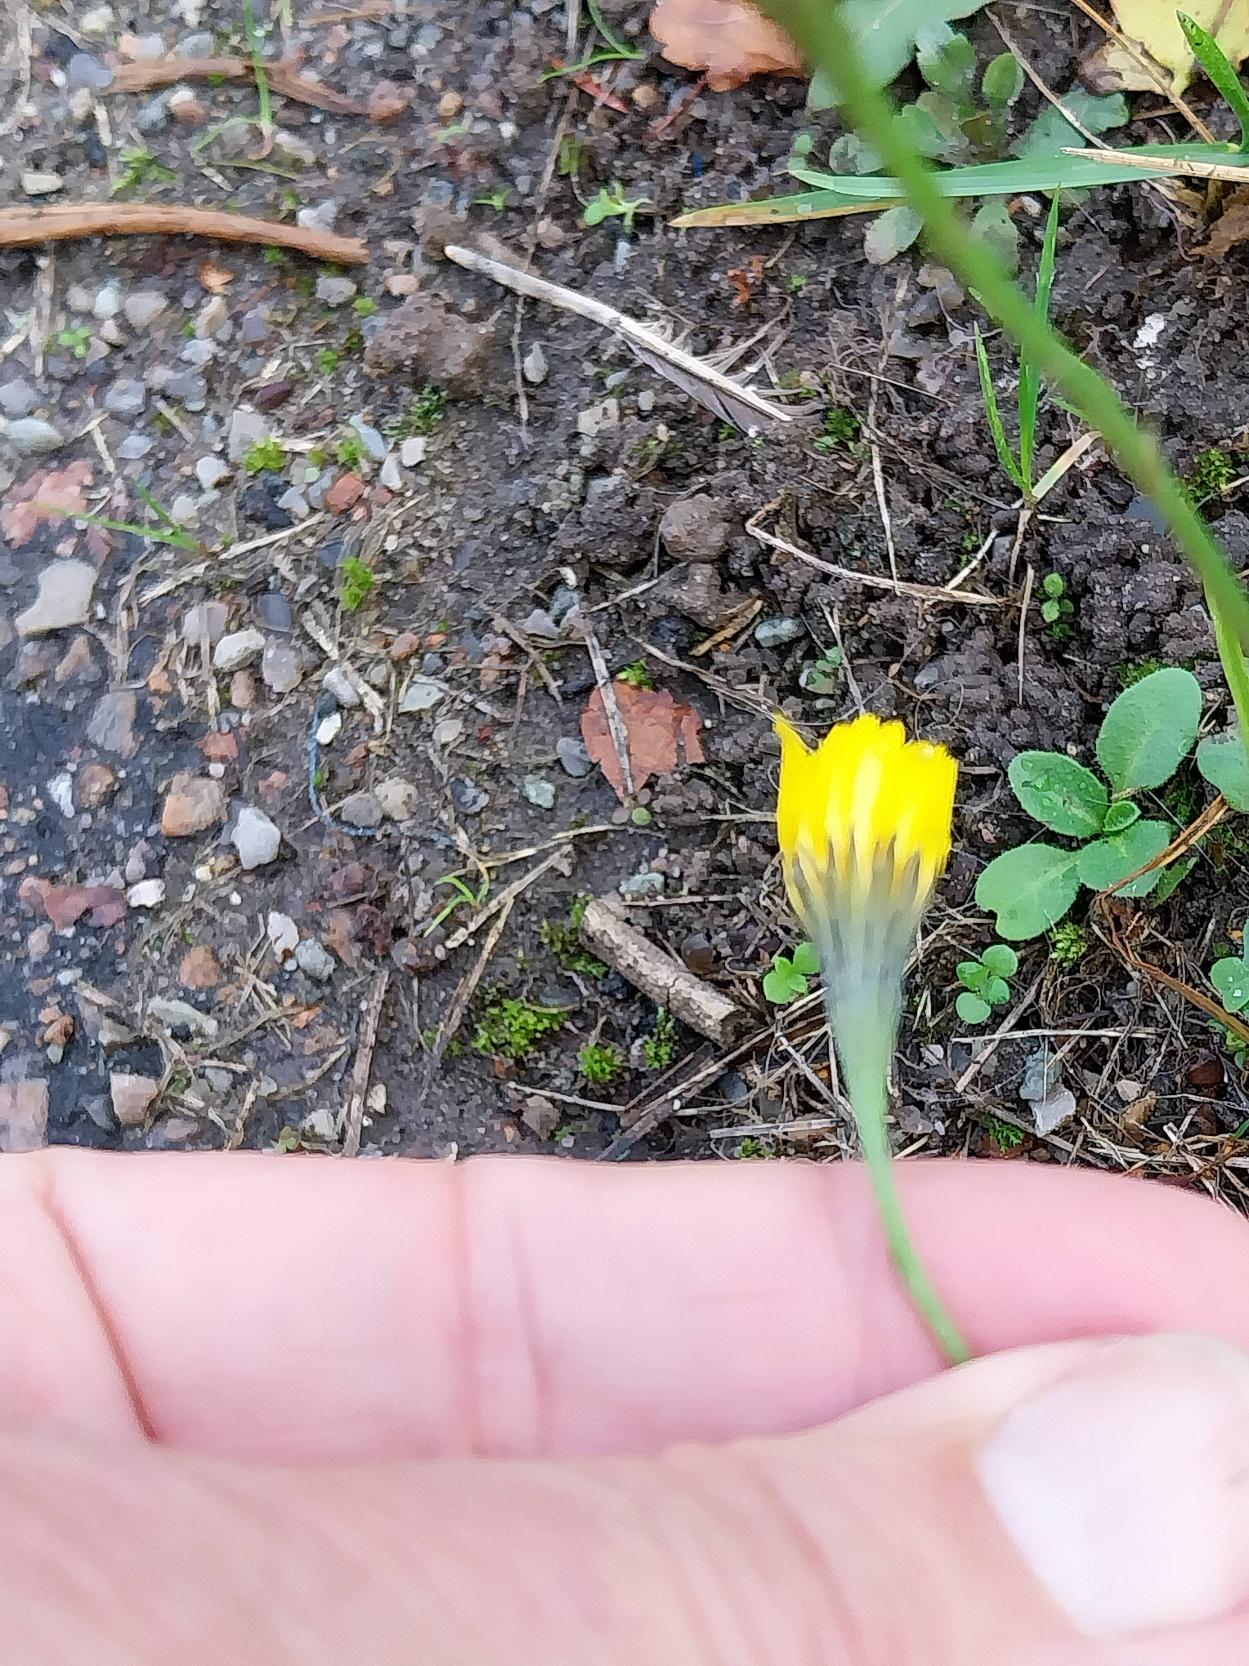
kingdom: Plantae
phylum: Tracheophyta
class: Magnoliopsida
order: Asterales
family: Asteraceae
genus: Scorzoneroides
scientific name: Scorzoneroides autumnalis
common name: Høst-borst
